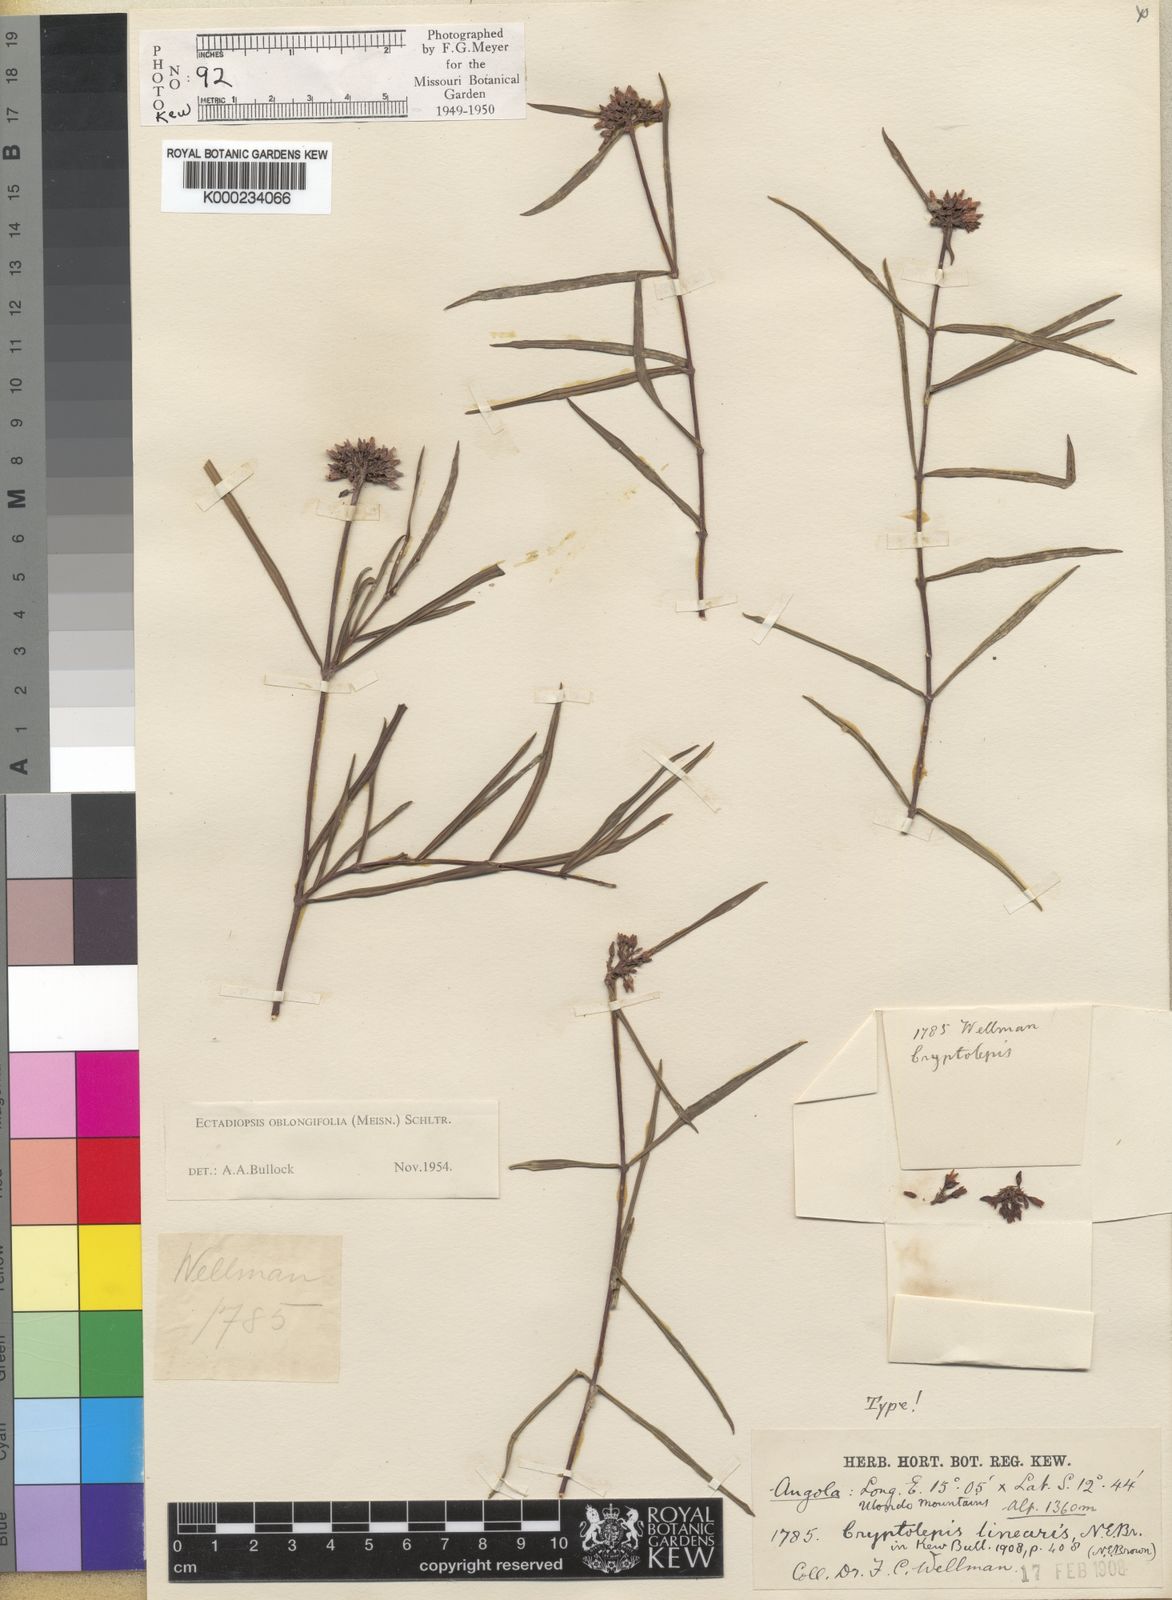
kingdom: Plantae
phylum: Tracheophyta
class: Magnoliopsida
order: Gentianales
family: Apocynaceae
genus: Cryptolepis
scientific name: Cryptolepis oblongifolia
